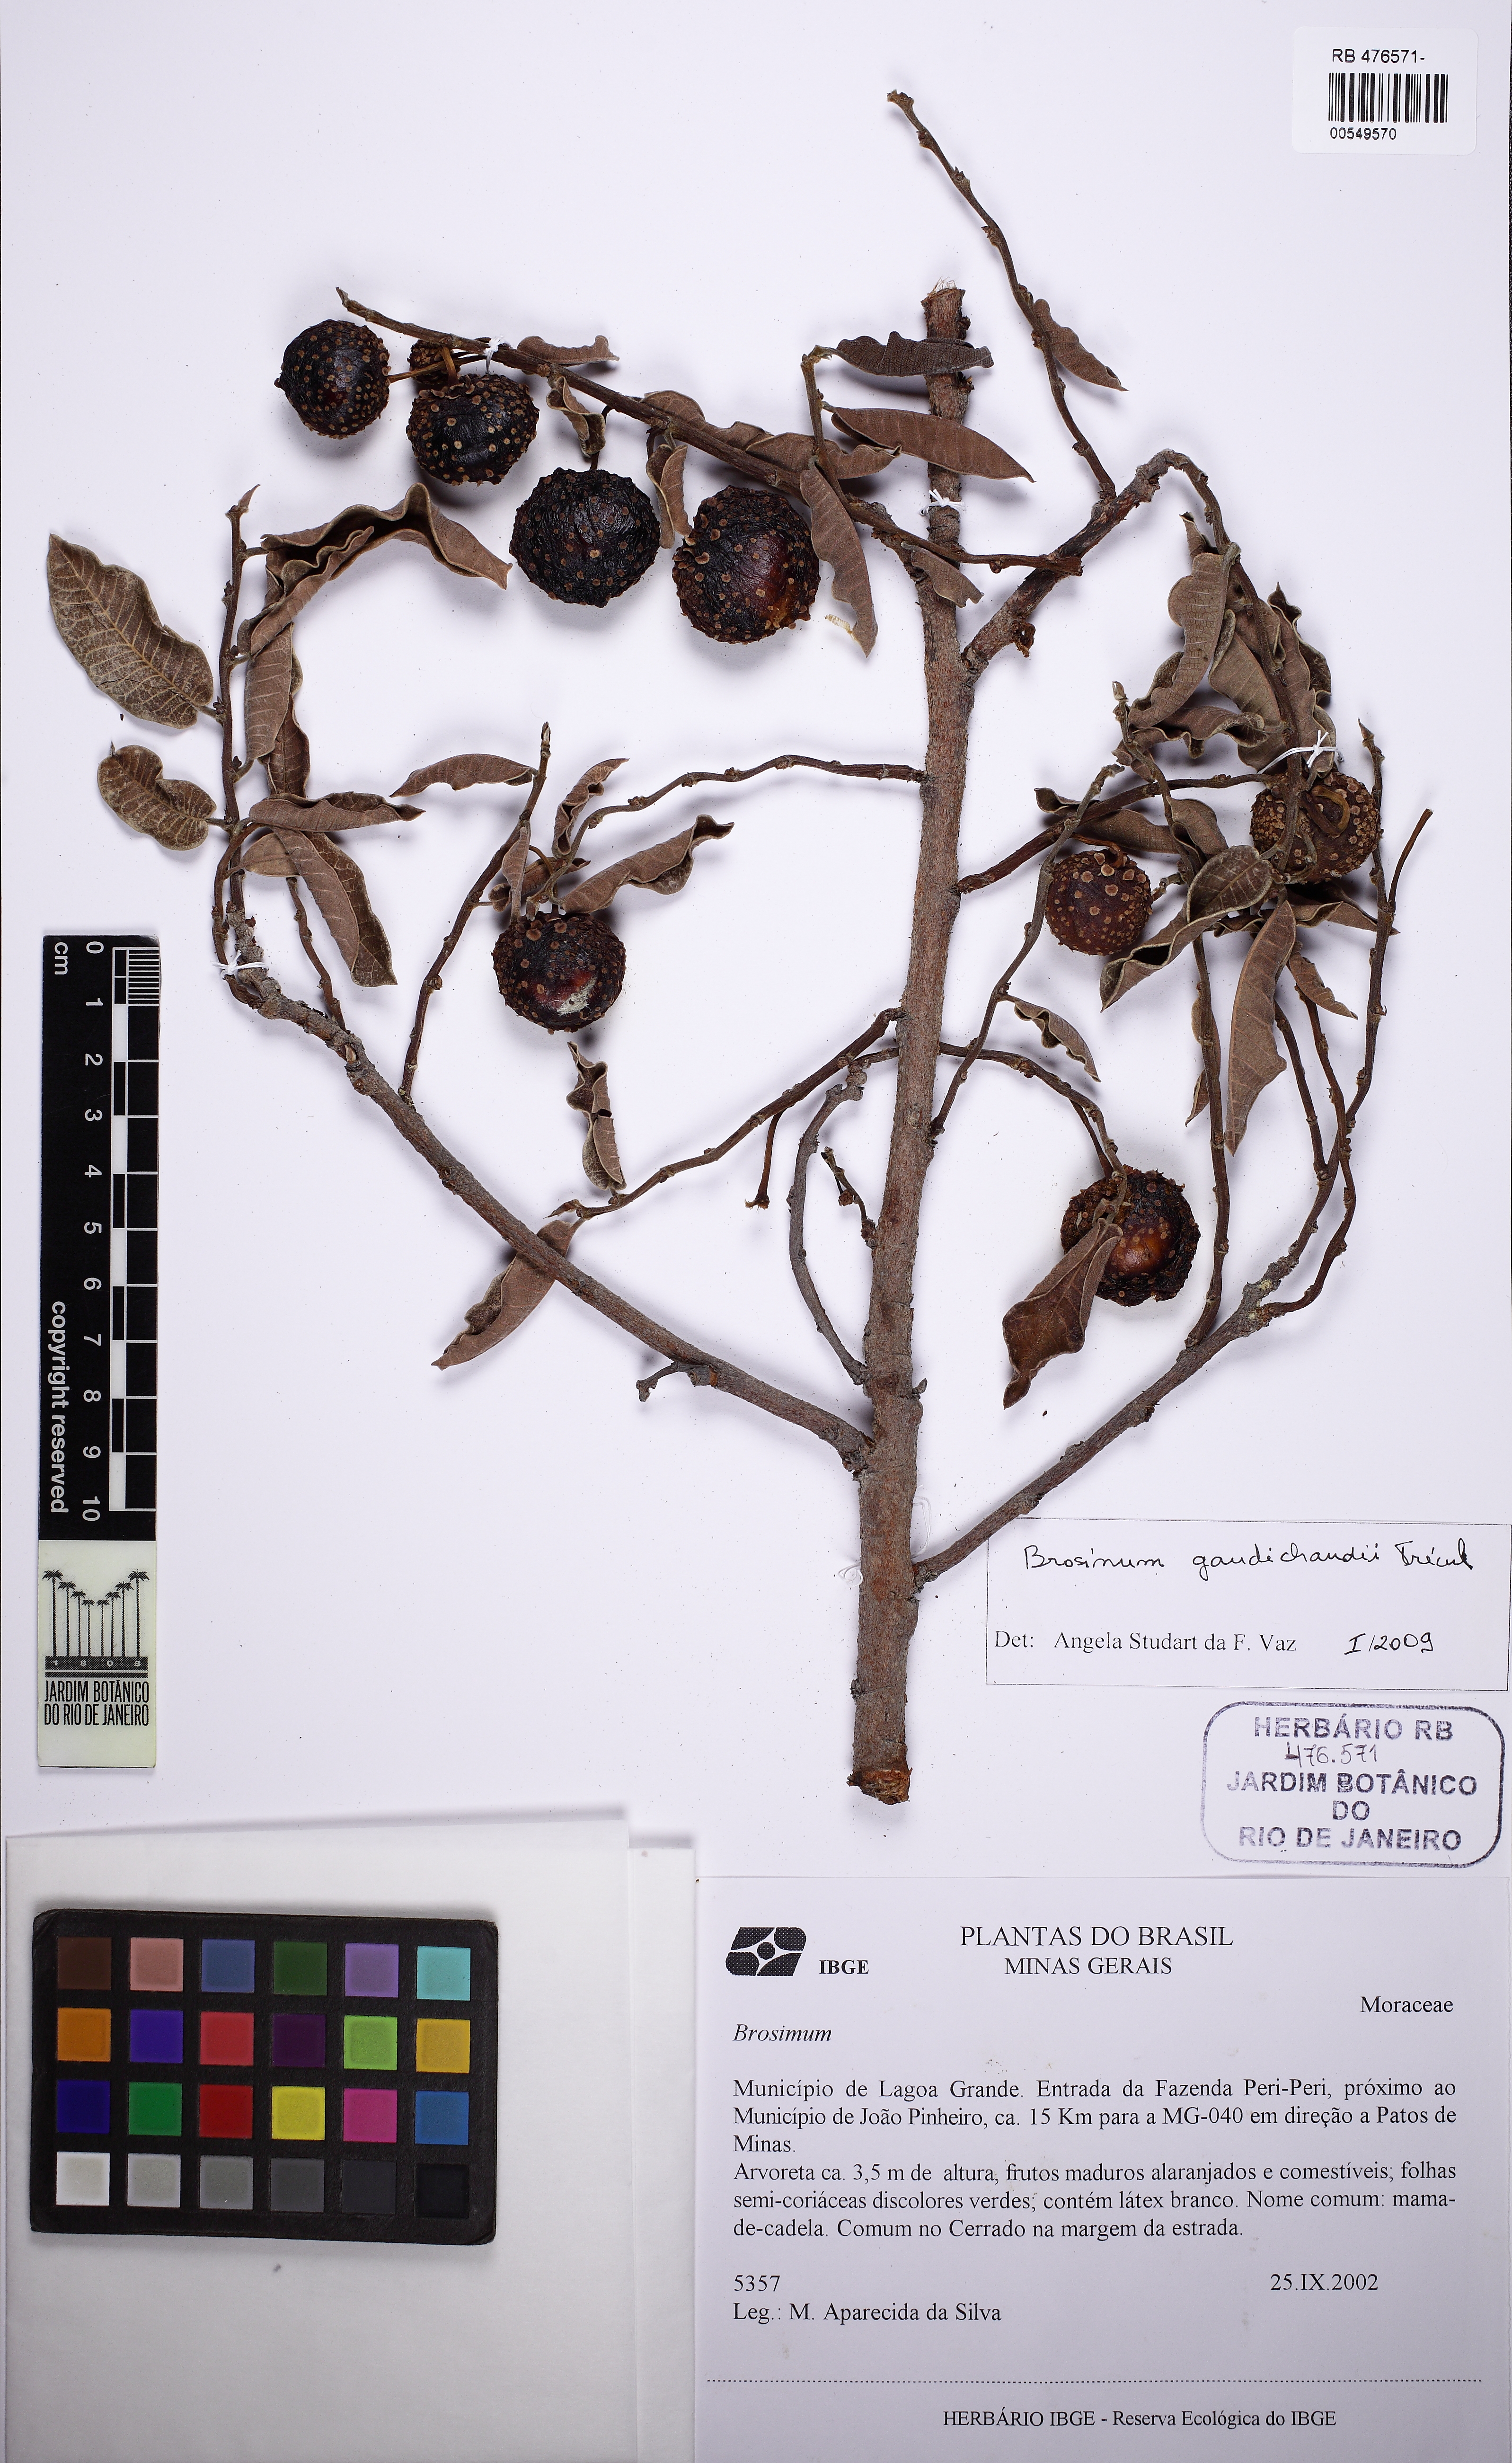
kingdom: Plantae
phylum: Tracheophyta
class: Magnoliopsida
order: Rosales
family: Moraceae
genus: Brosimum
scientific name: Brosimum gaudichaudii
